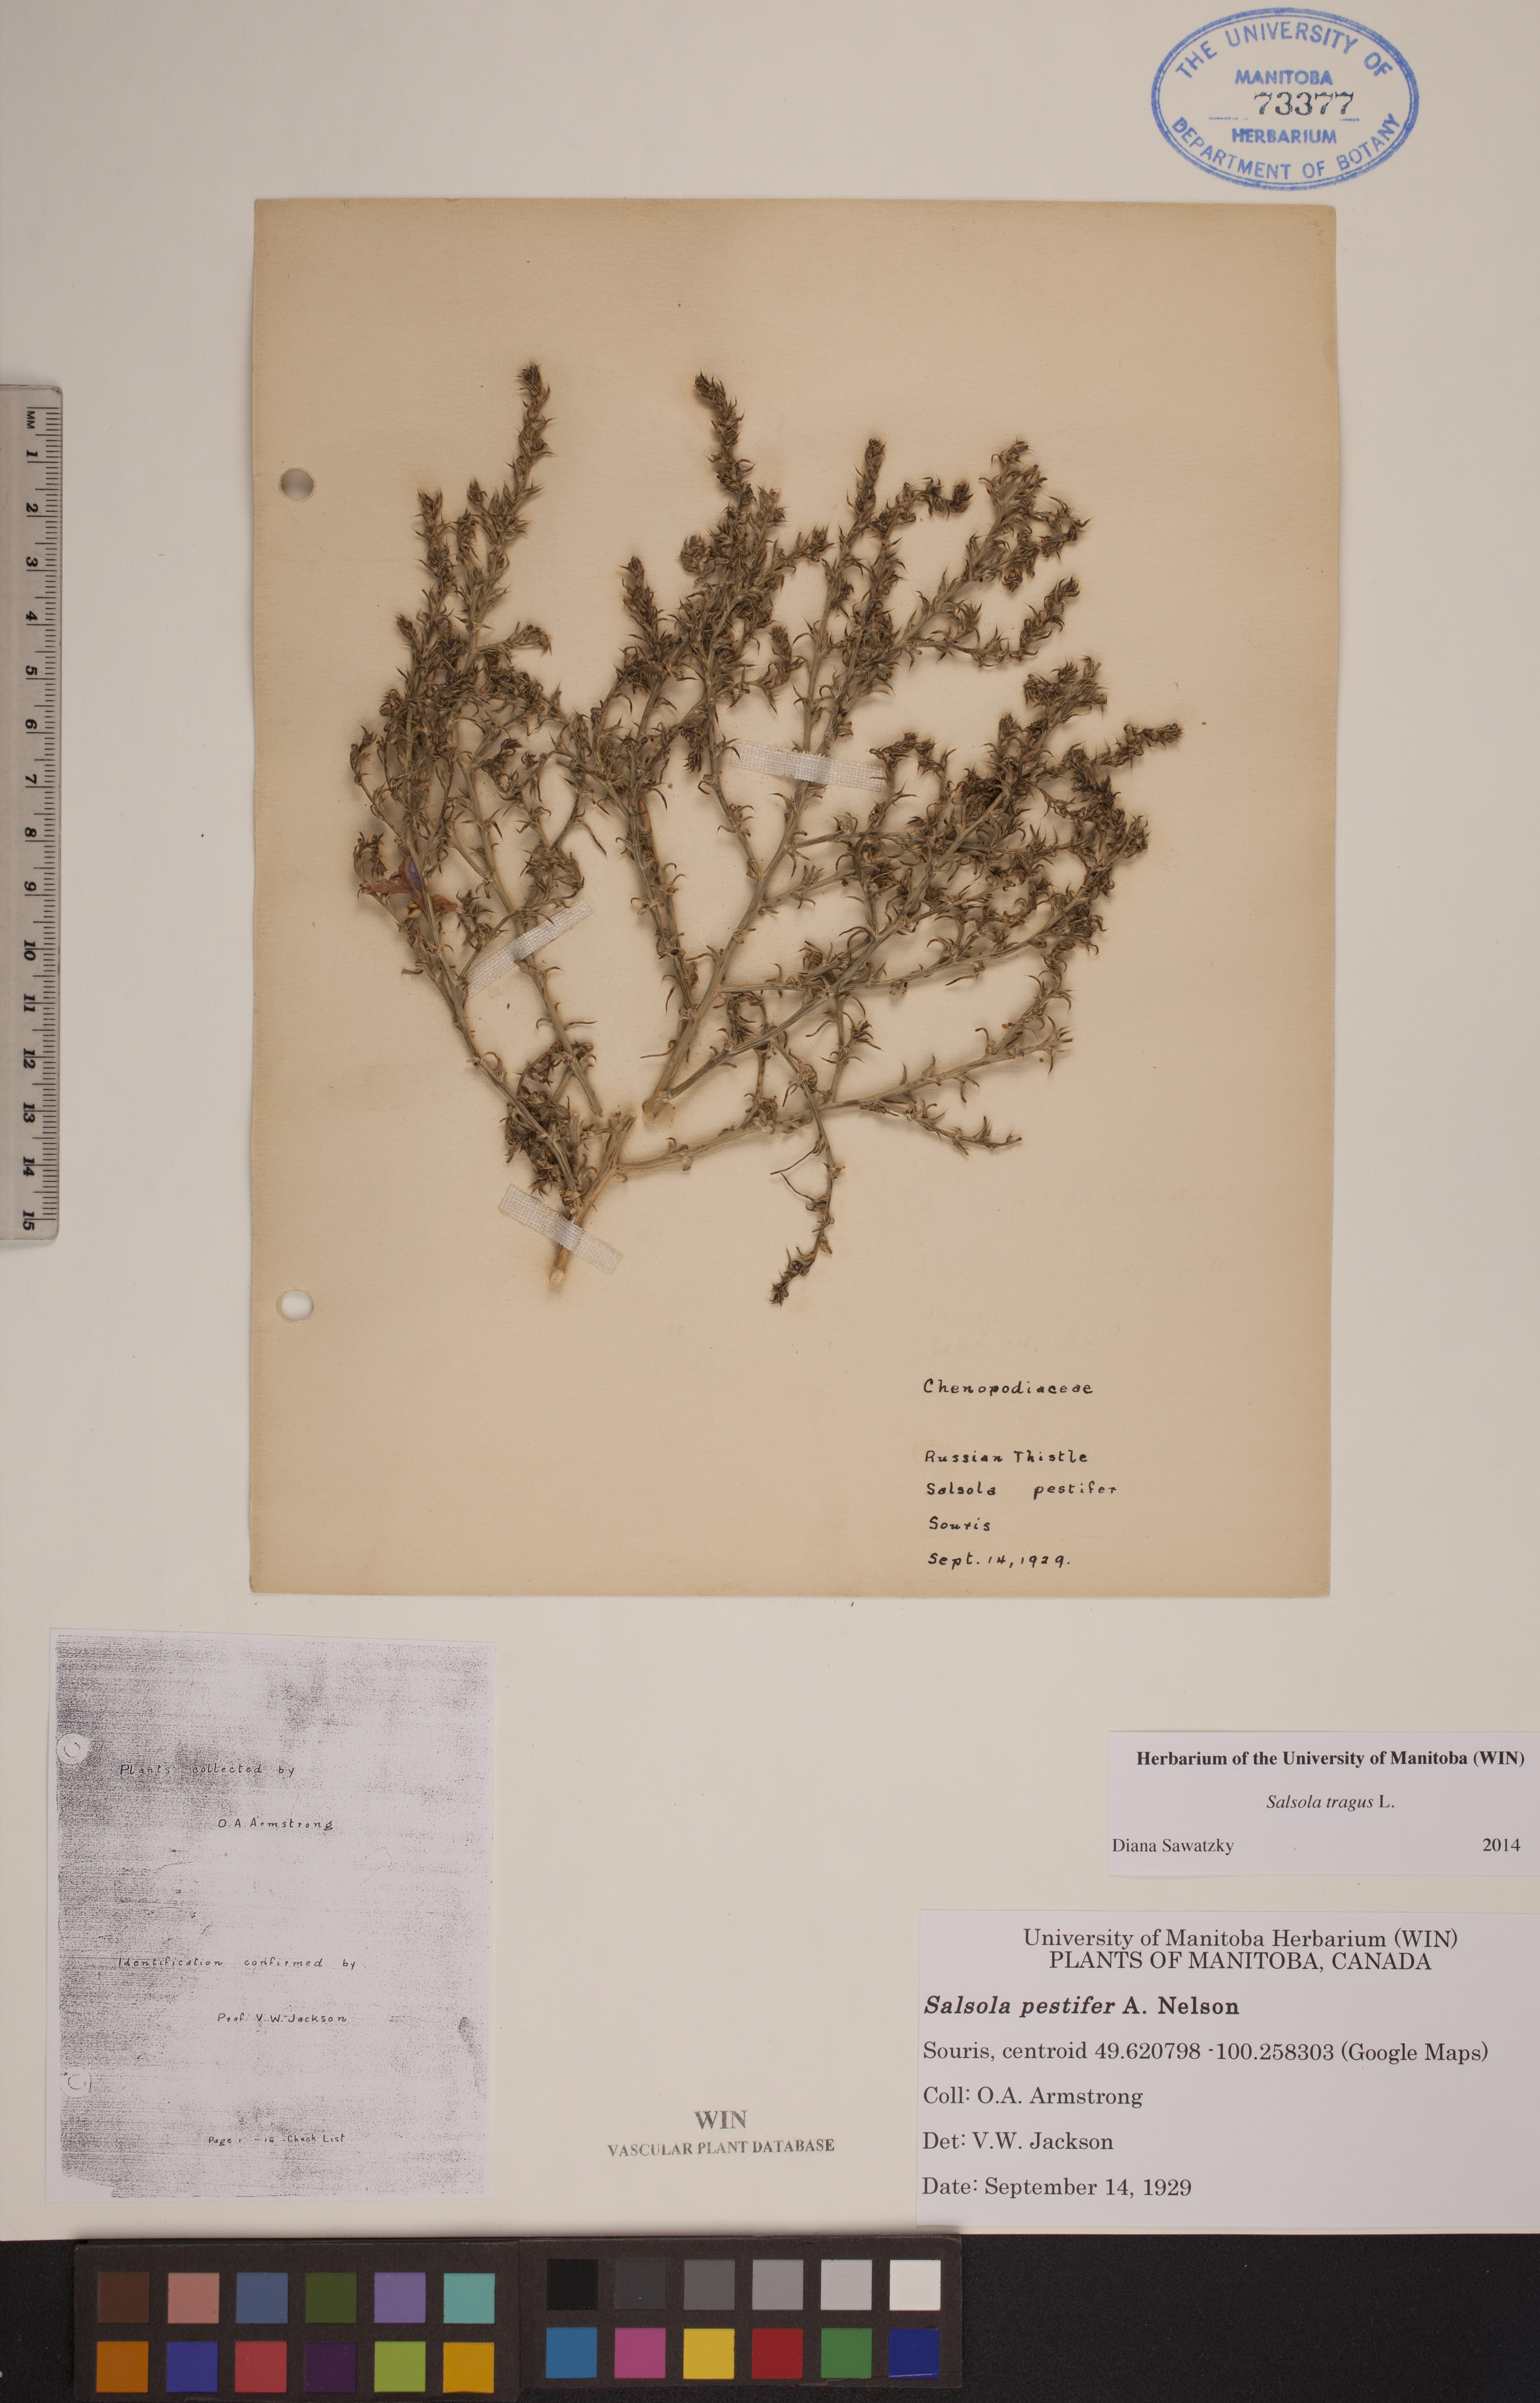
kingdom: Plantae
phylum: Tracheophyta
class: Magnoliopsida
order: Caryophyllales
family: Amaranthaceae
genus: Salsola
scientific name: Salsola tragus
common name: Prickly russian thistle
